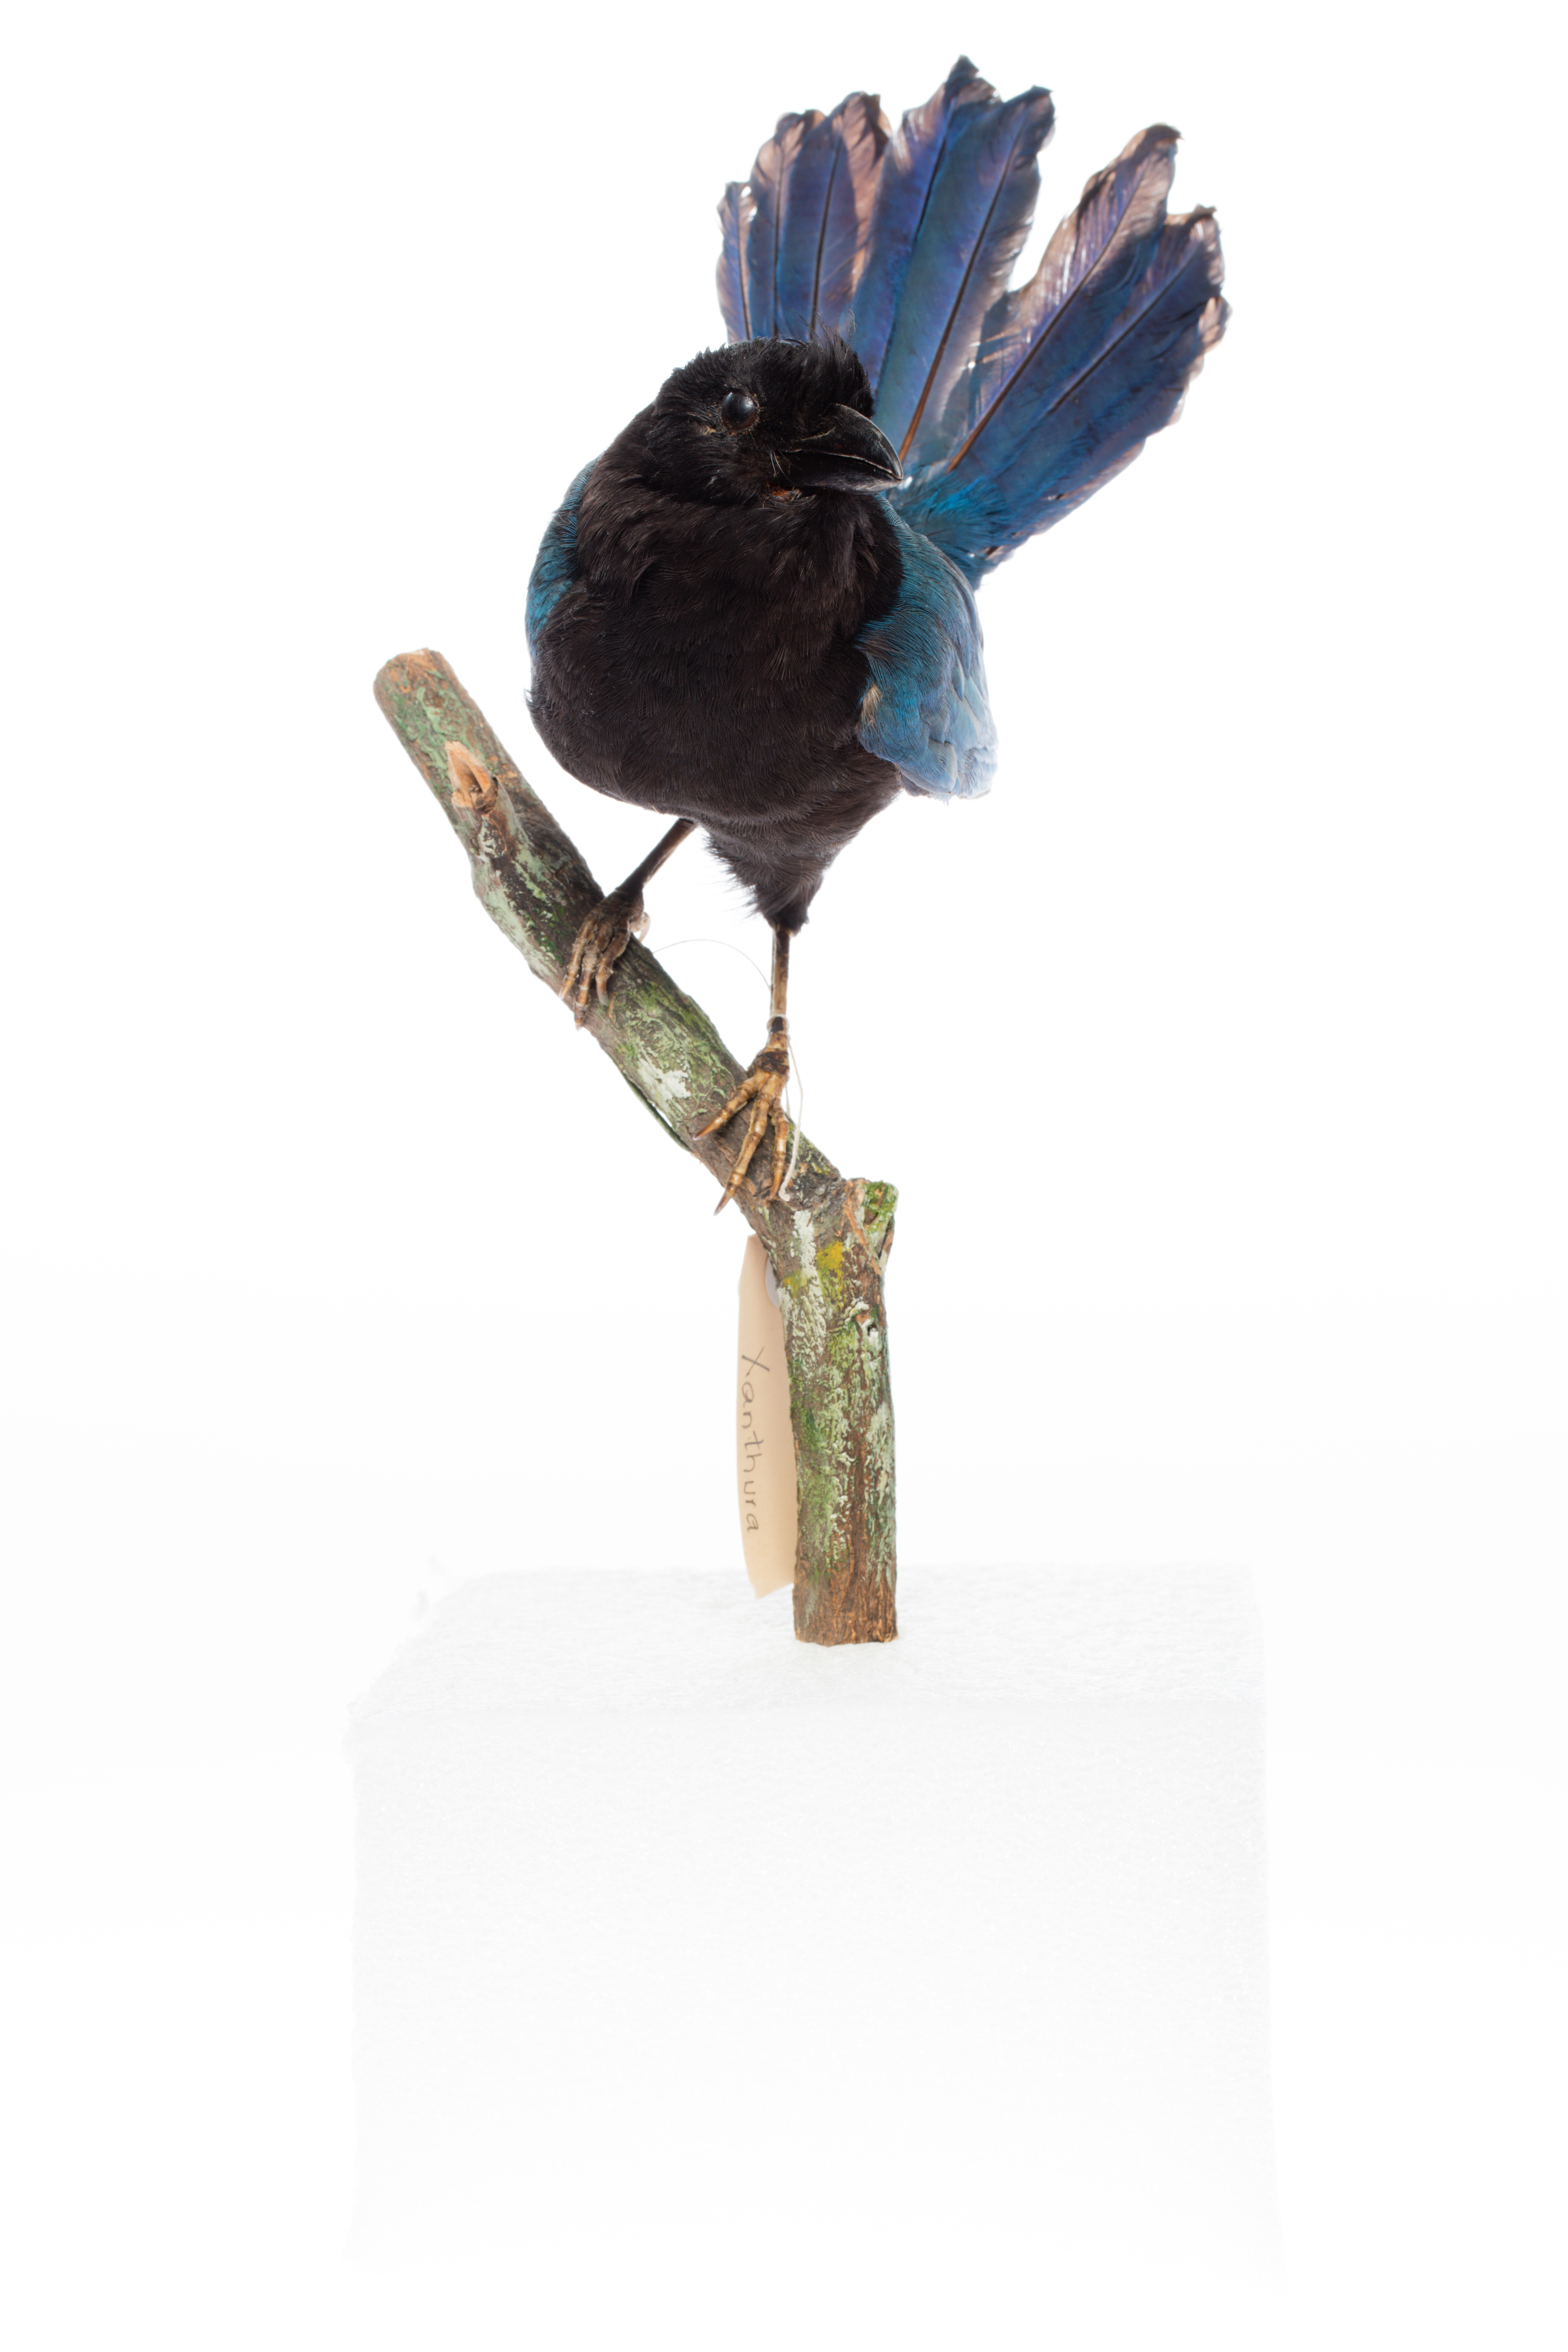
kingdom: Animalia
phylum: Chordata
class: Aves
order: Passeriformes
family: Corvidae
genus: Cyanocorax
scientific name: Cyanocorax
